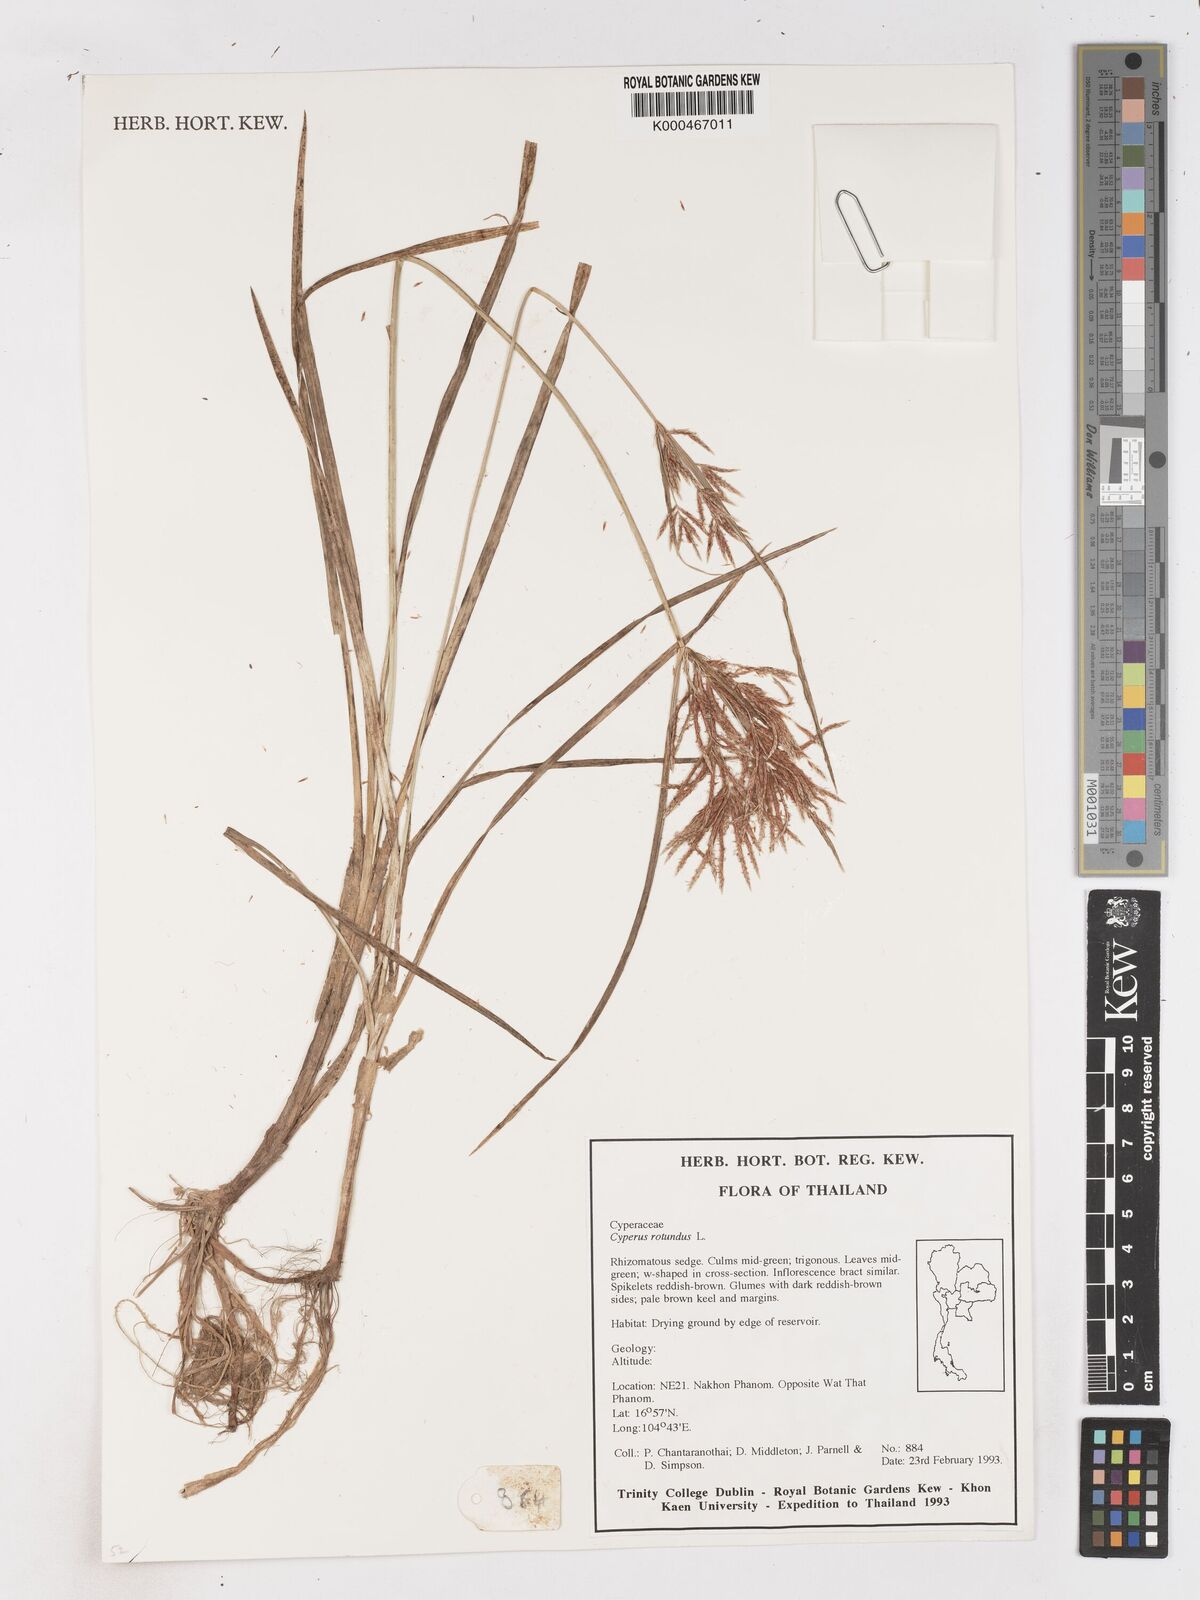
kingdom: Plantae
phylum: Tracheophyta
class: Liliopsida
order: Poales
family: Cyperaceae
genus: Cyperus
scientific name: Cyperus rotundus
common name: Nutgrass
